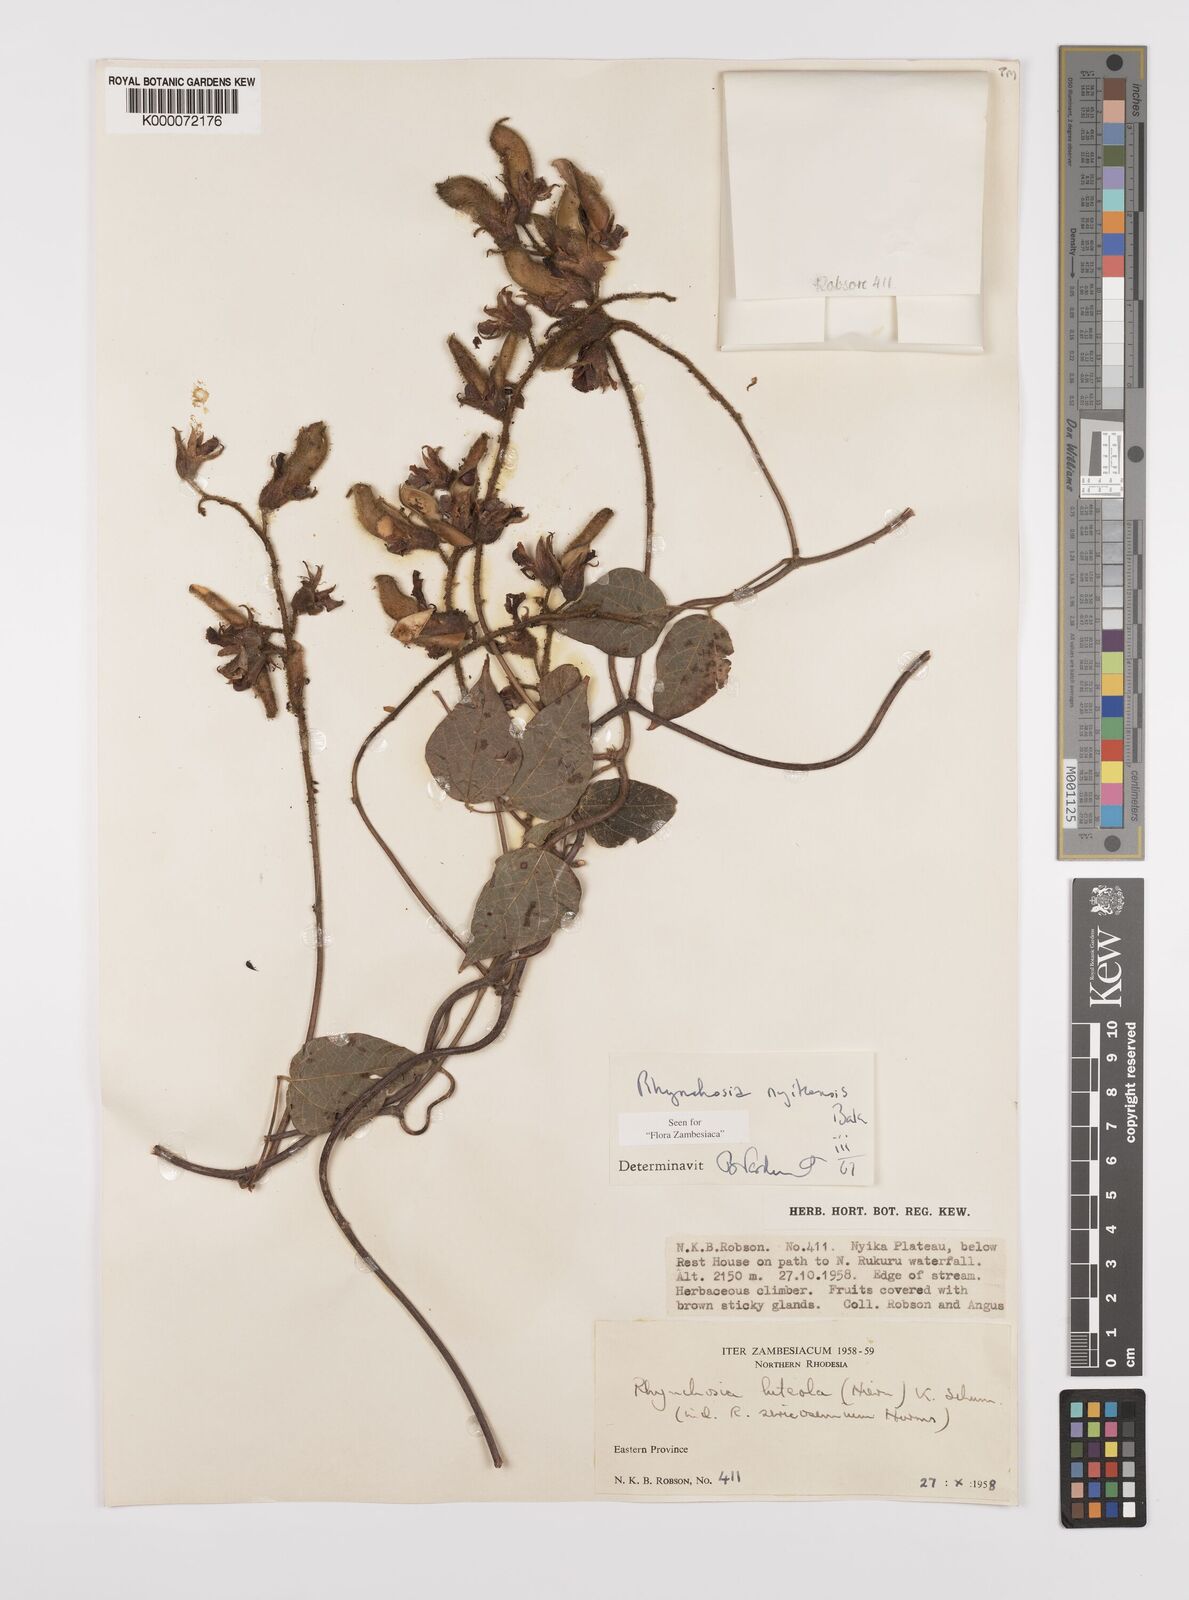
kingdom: Plantae
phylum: Tracheophyta
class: Magnoliopsida
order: Fabales
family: Fabaceae
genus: Rhynchosia
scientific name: Rhynchosia nyikensis
